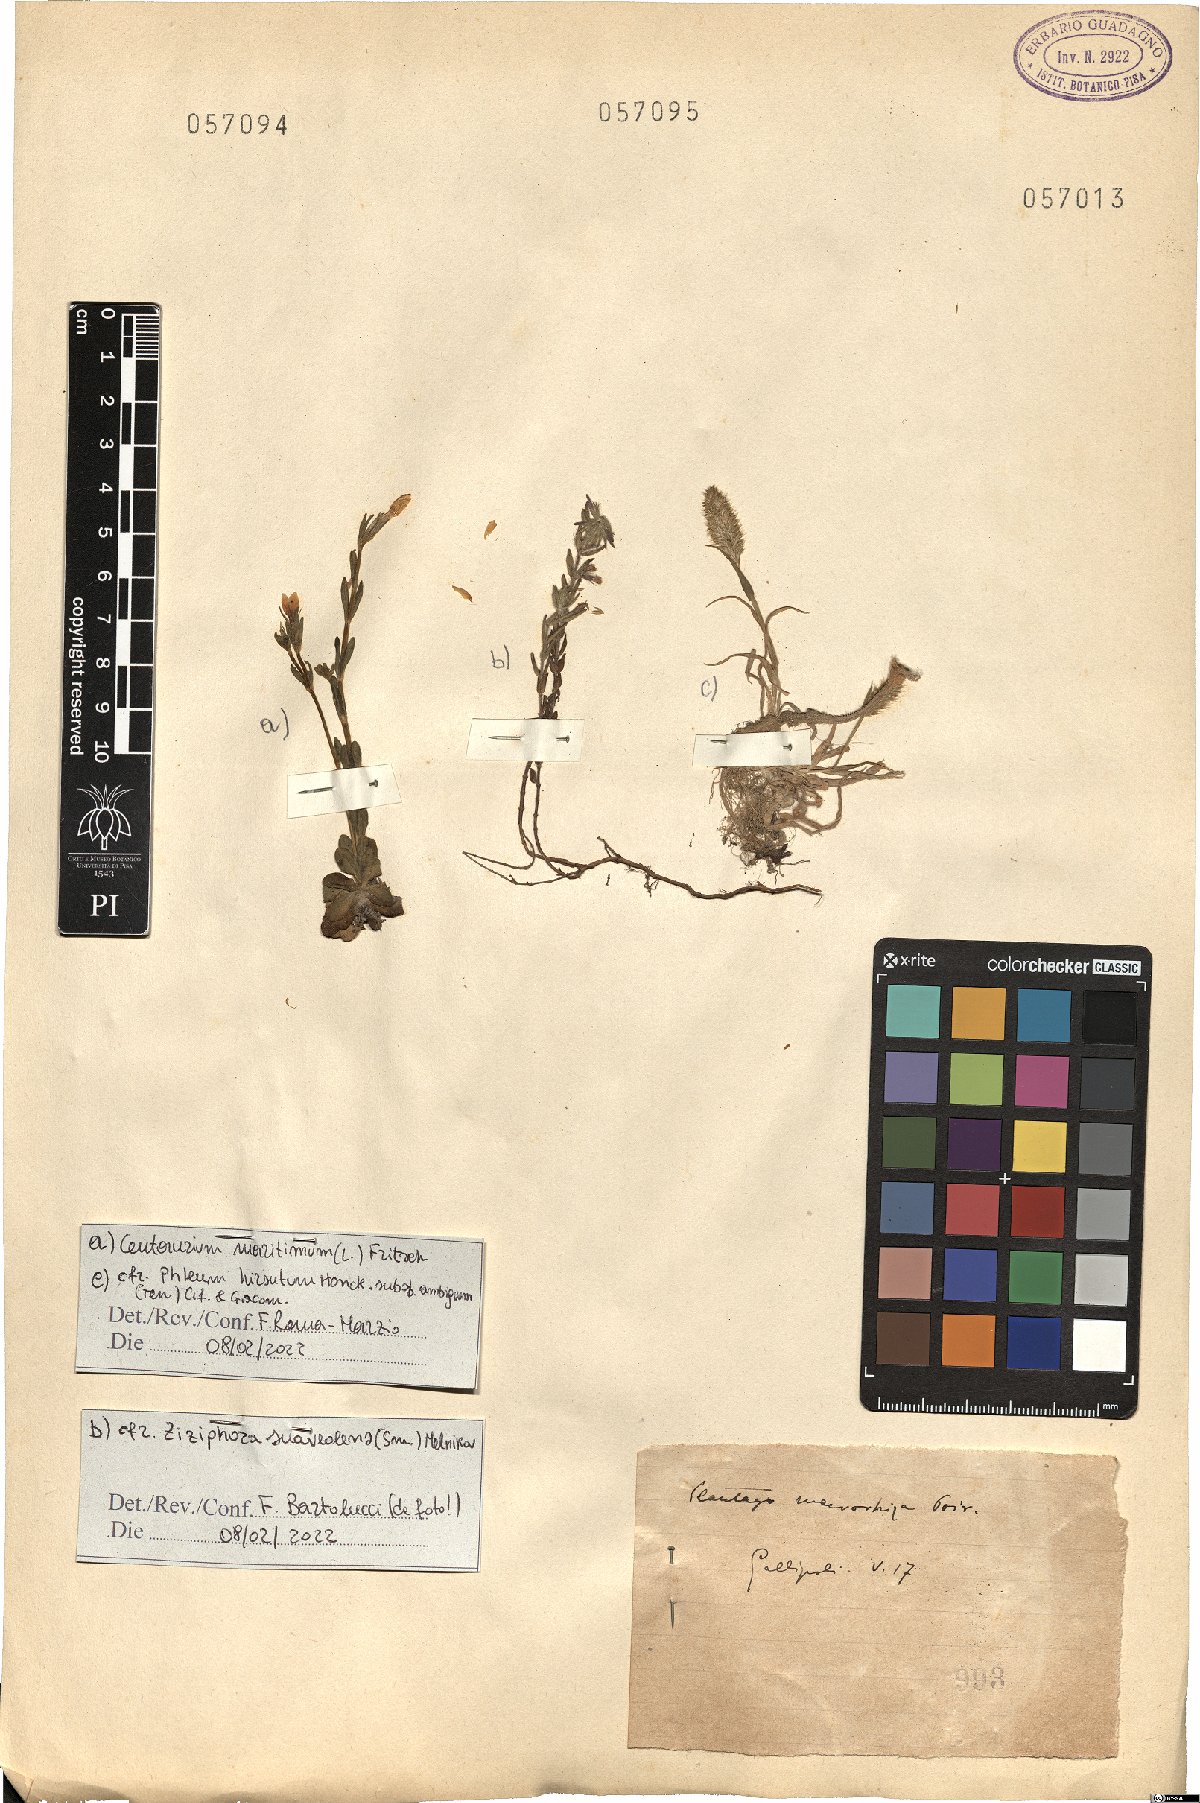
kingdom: Plantae
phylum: Tracheophyta
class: Magnoliopsida
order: Lamiales
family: Lamiaceae
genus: Clinopodium
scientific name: Clinopodium suaveolens
